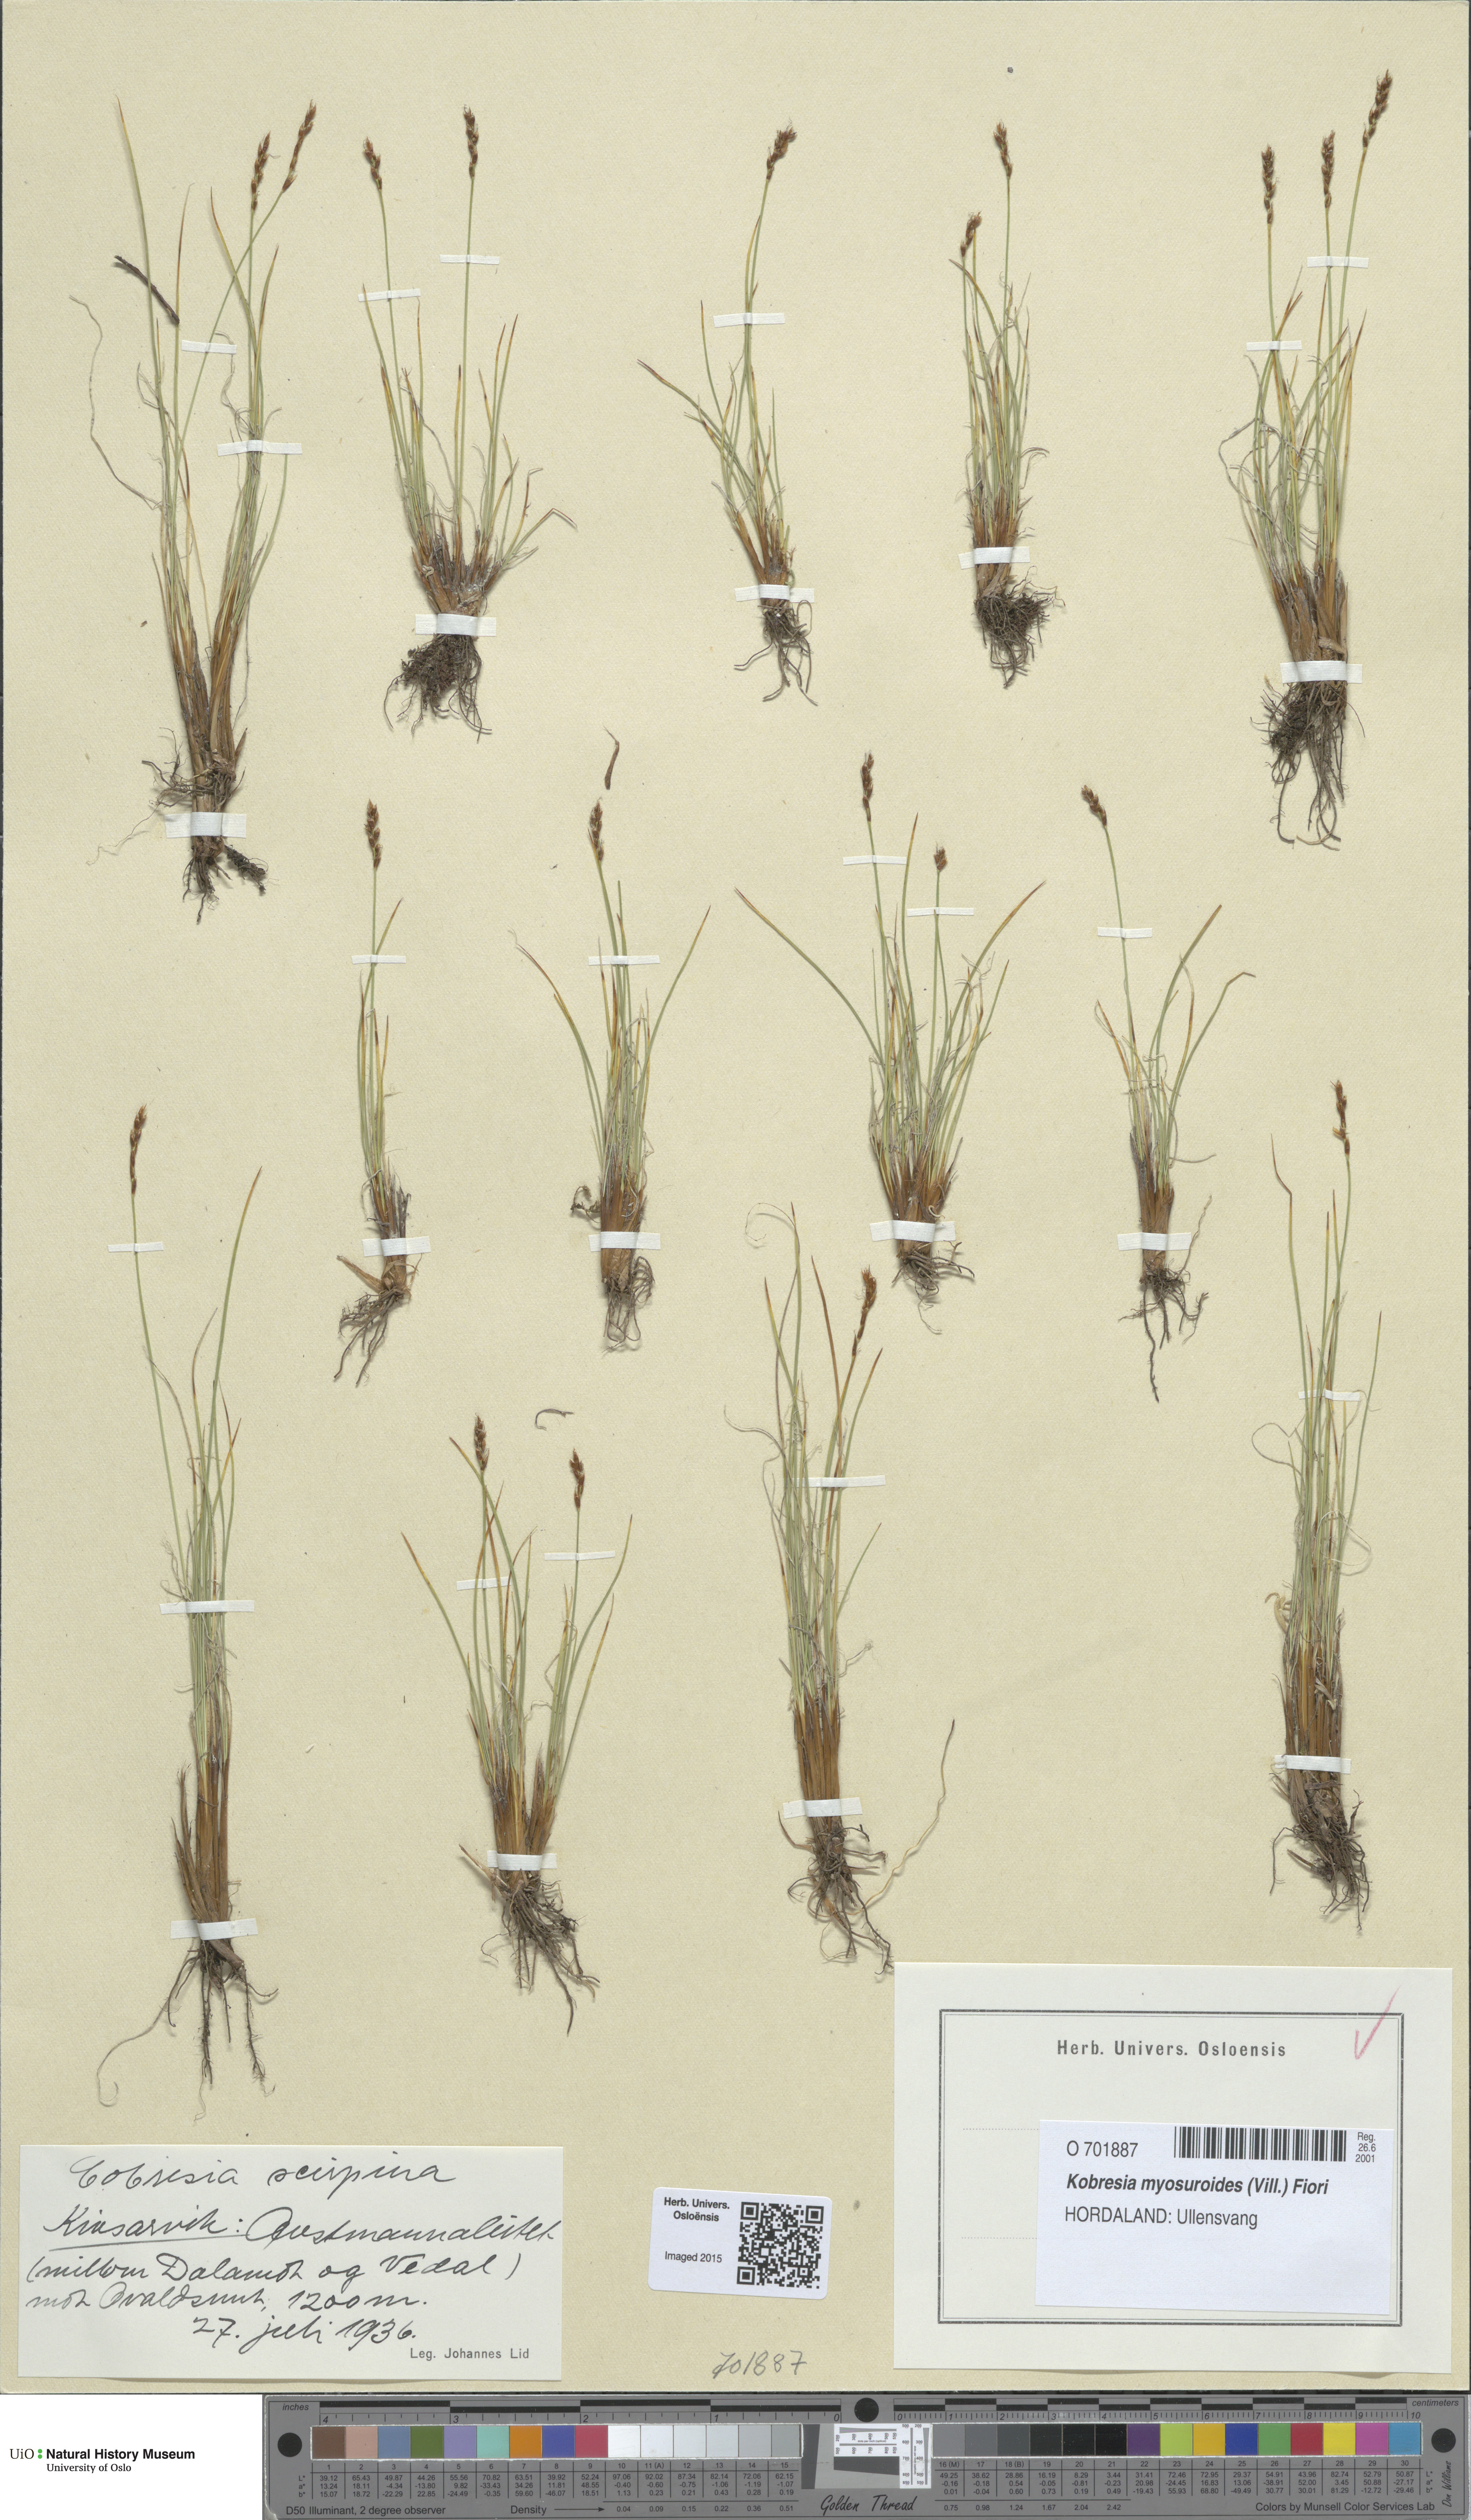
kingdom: Plantae
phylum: Tracheophyta
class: Liliopsida
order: Poales
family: Cyperaceae
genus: Carex
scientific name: Carex myosuroides
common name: Bellard's bog sedge
